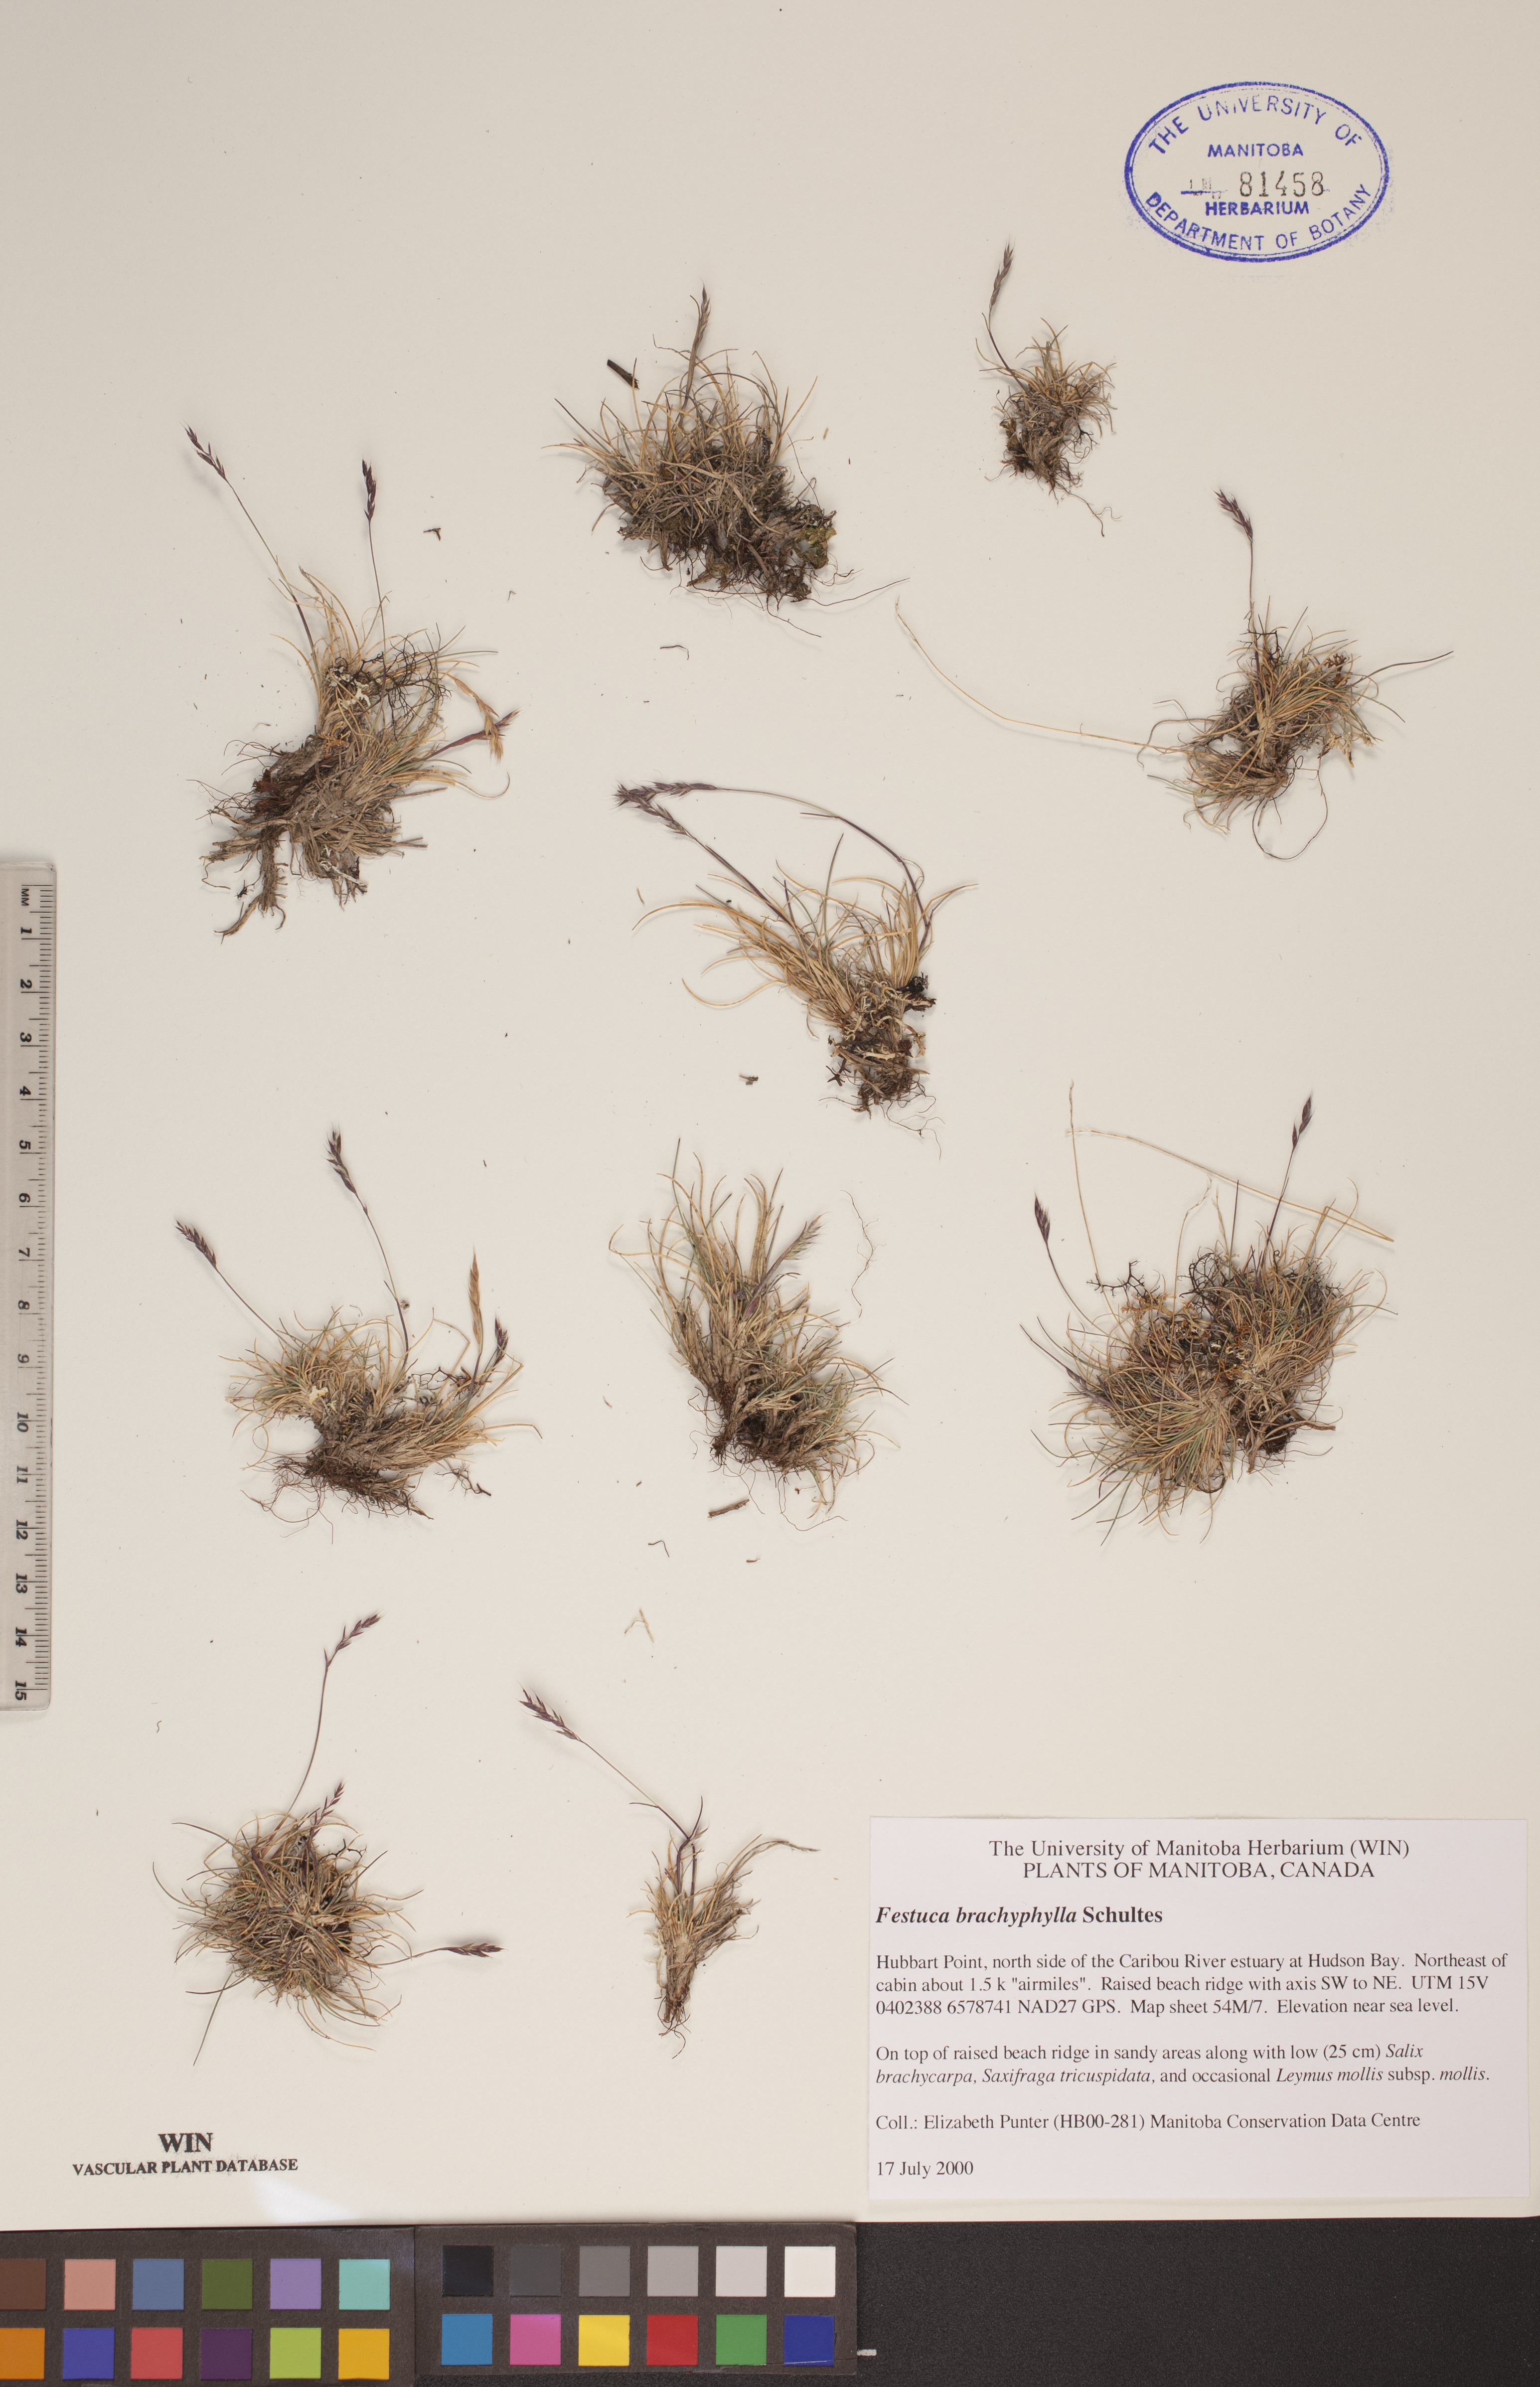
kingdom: Plantae
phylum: Tracheophyta
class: Liliopsida
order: Poales
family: Poaceae
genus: Festuca
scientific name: Festuca brachyphylla
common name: Alpine fescue
